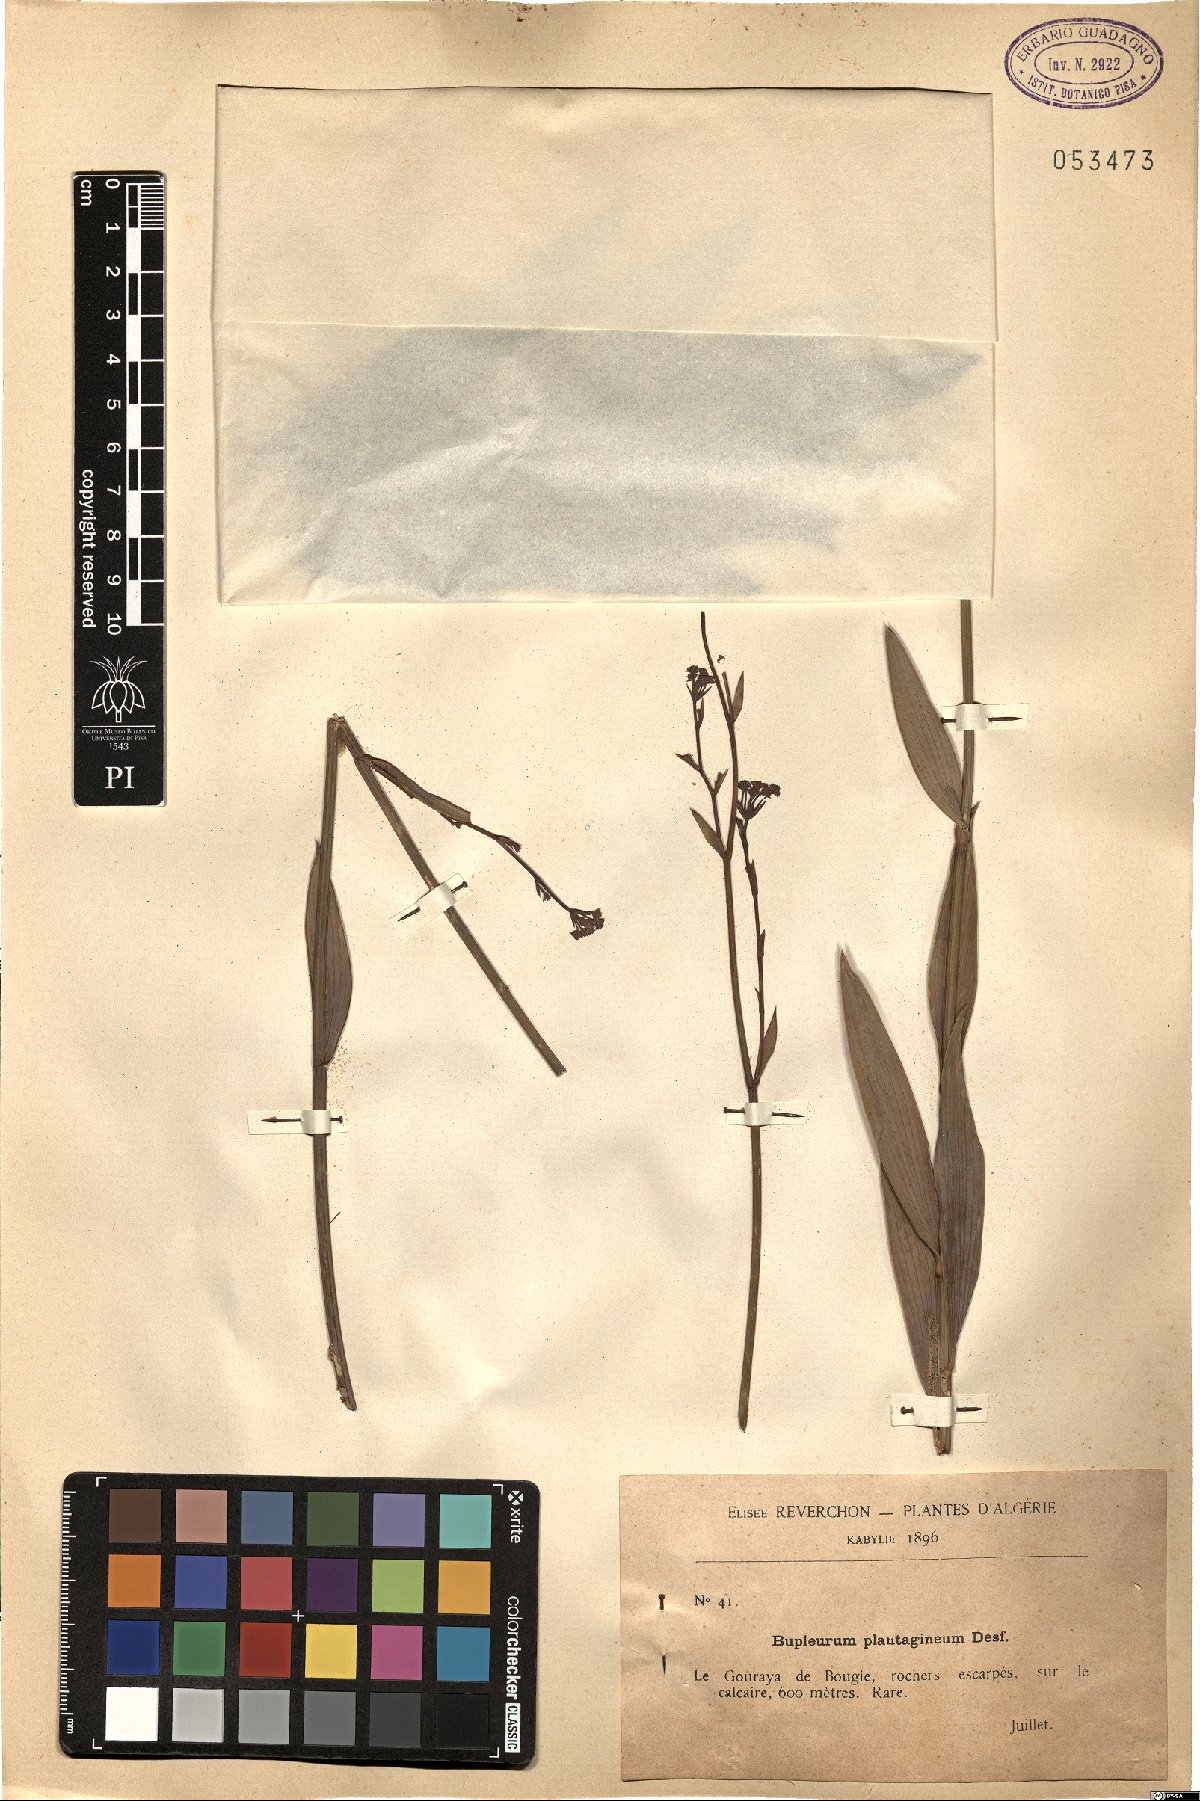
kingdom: Plantae
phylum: Tracheophyta
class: Magnoliopsida
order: Apiales
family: Apiaceae
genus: Bupleurum
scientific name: Bupleurum plantagineum
